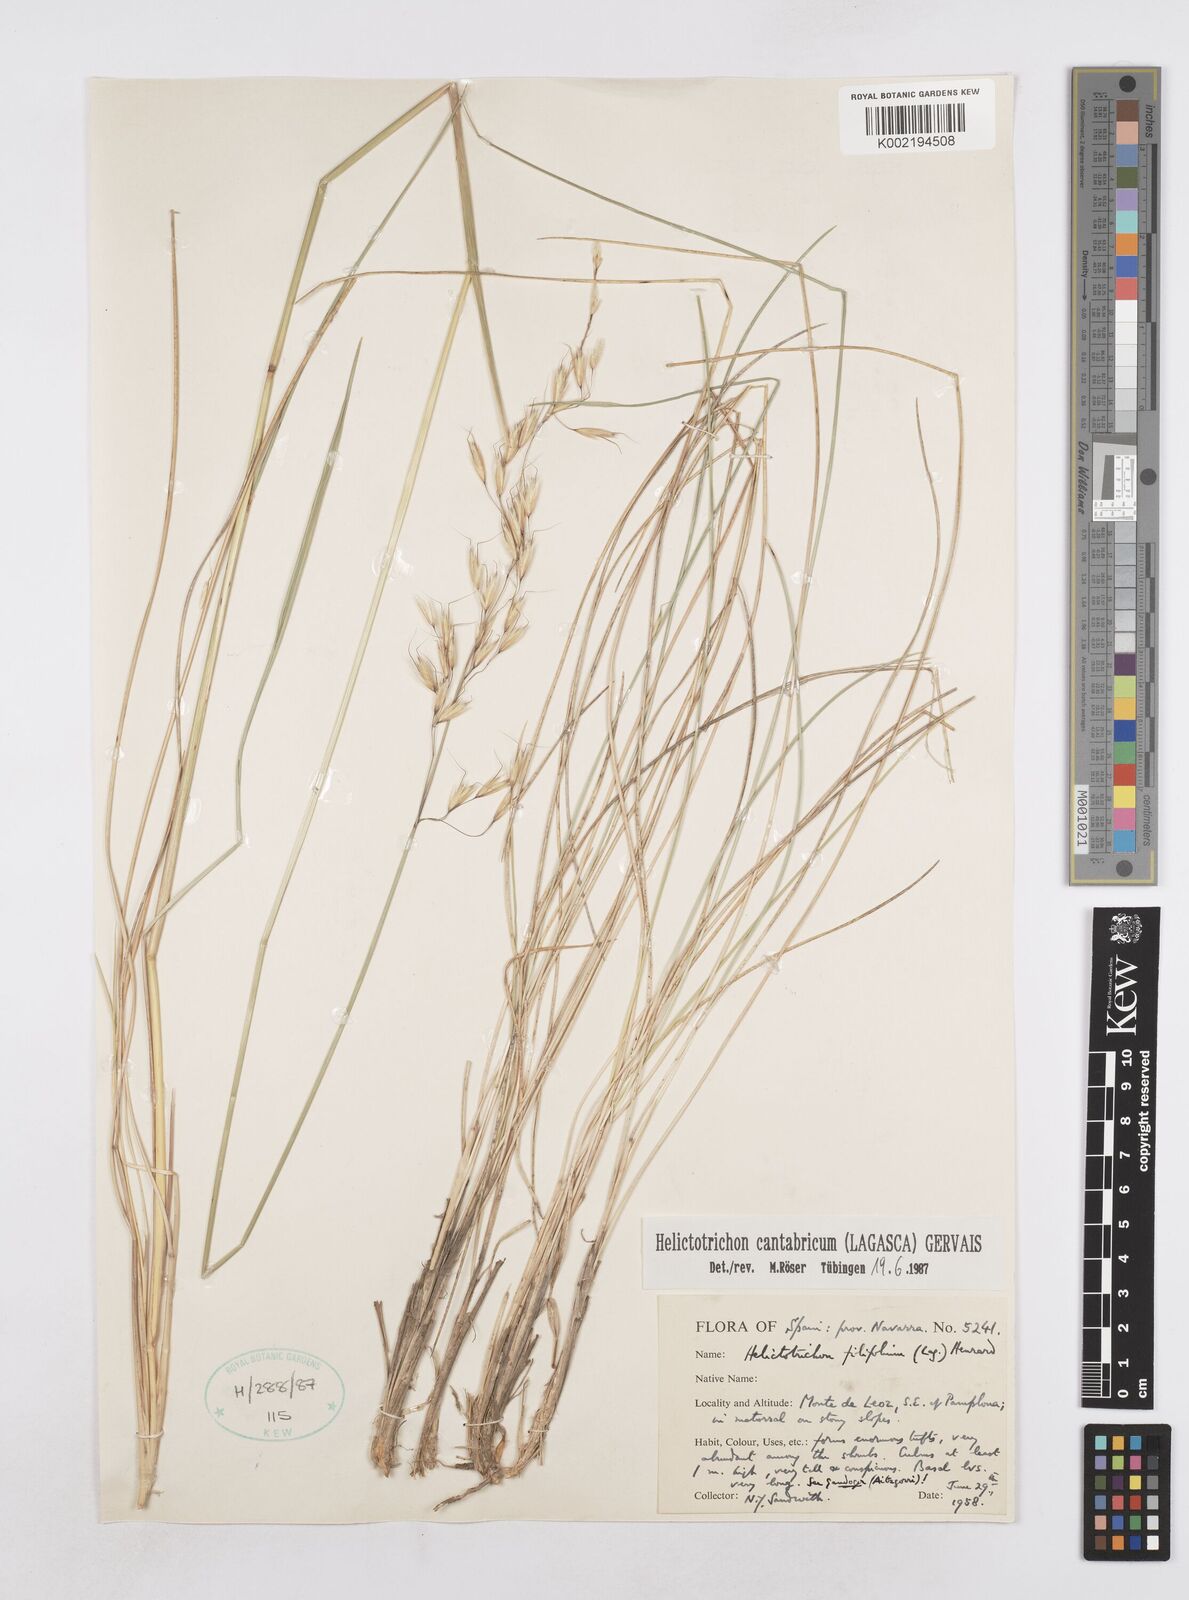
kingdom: Plantae
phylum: Tracheophyta
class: Liliopsida
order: Poales
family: Poaceae
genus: Helictotrichon
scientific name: Helictotrichon cantabricum
